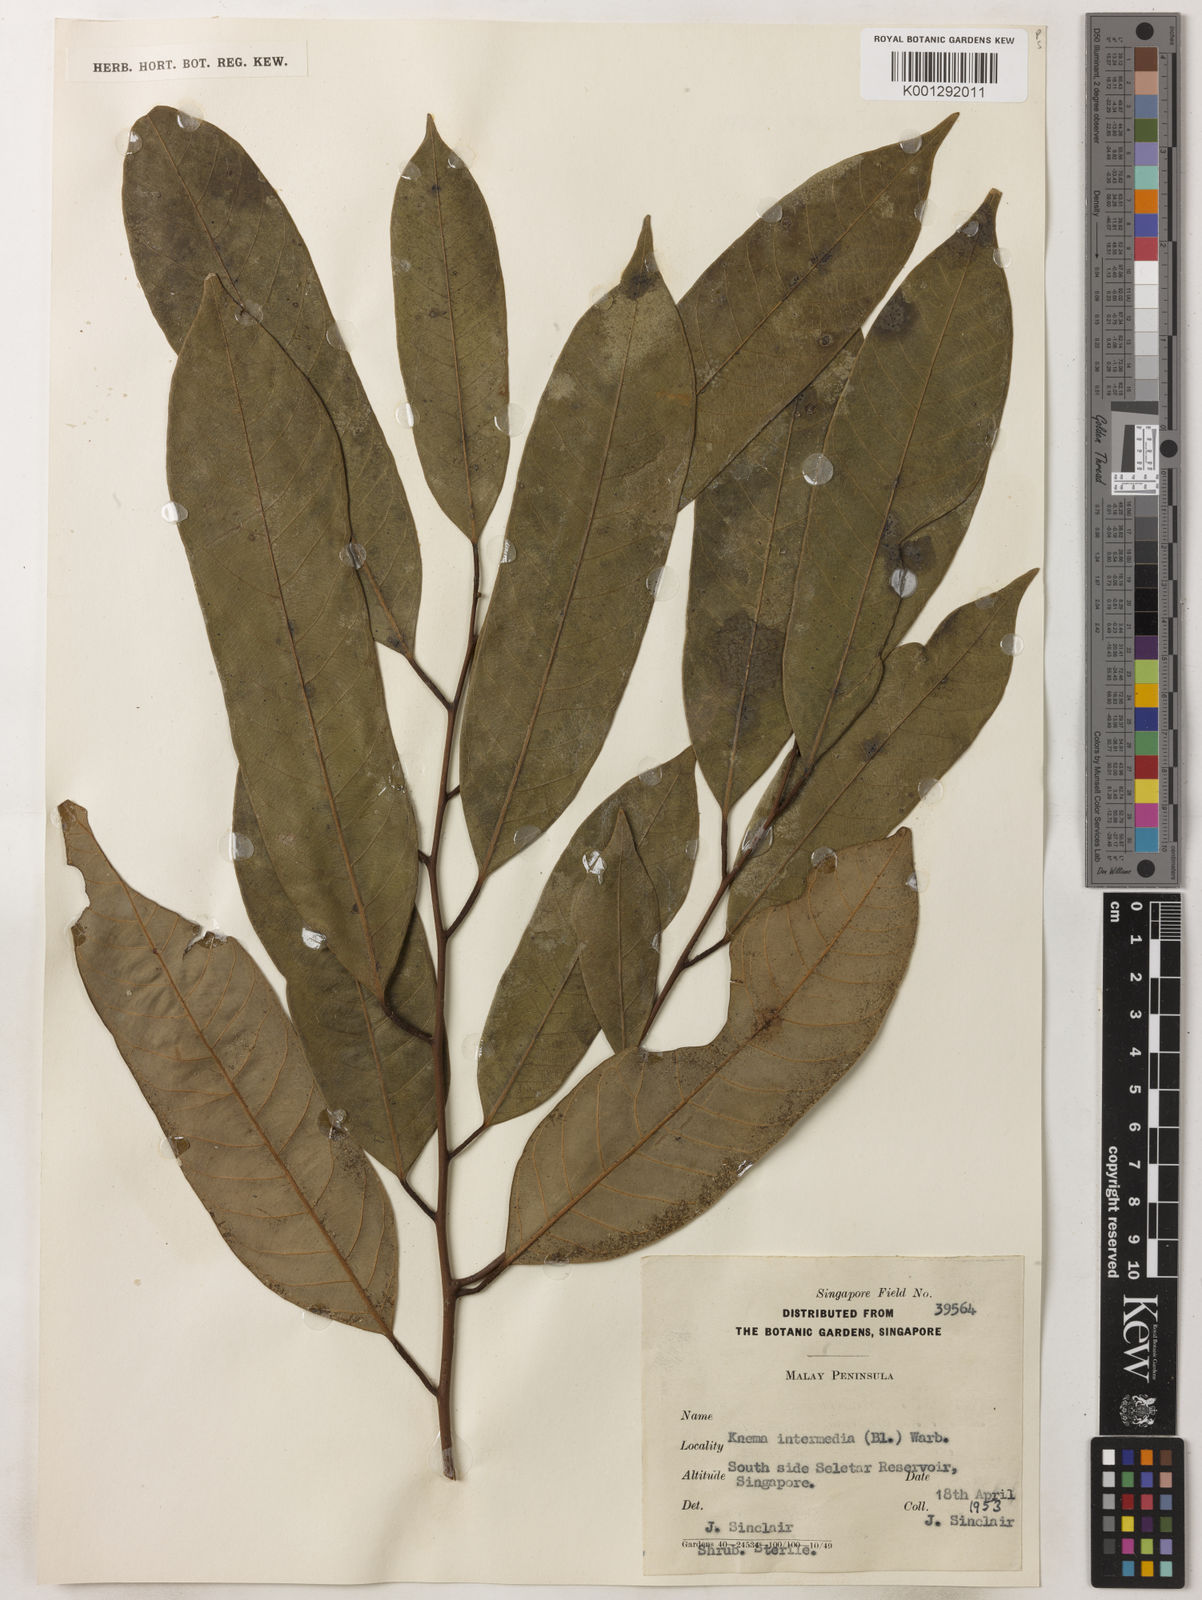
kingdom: Plantae
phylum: Tracheophyta
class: Magnoliopsida
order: Magnoliales
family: Myristicaceae
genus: Knema
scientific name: Knema intermedia
